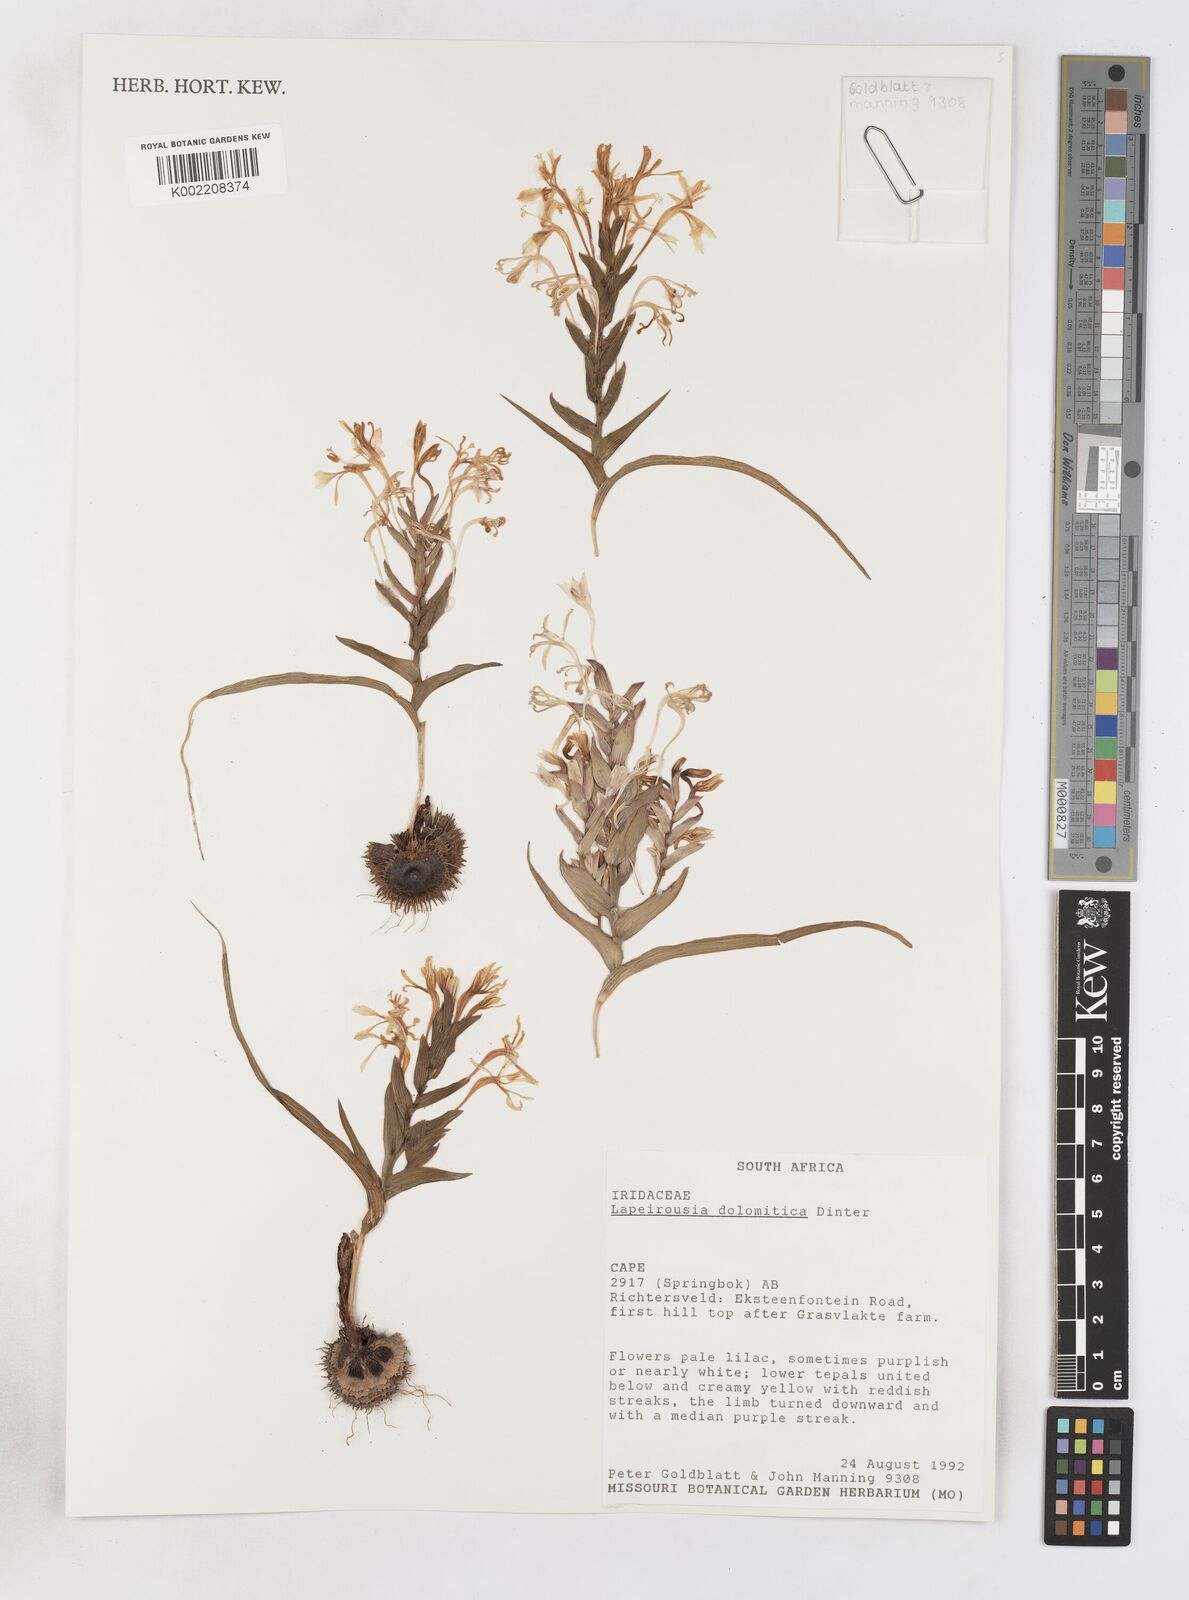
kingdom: Plantae
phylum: Tracheophyta
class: Liliopsida
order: Asparagales
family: Iridaceae
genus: Lapeirousia
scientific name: Lapeirousia dolomitica
